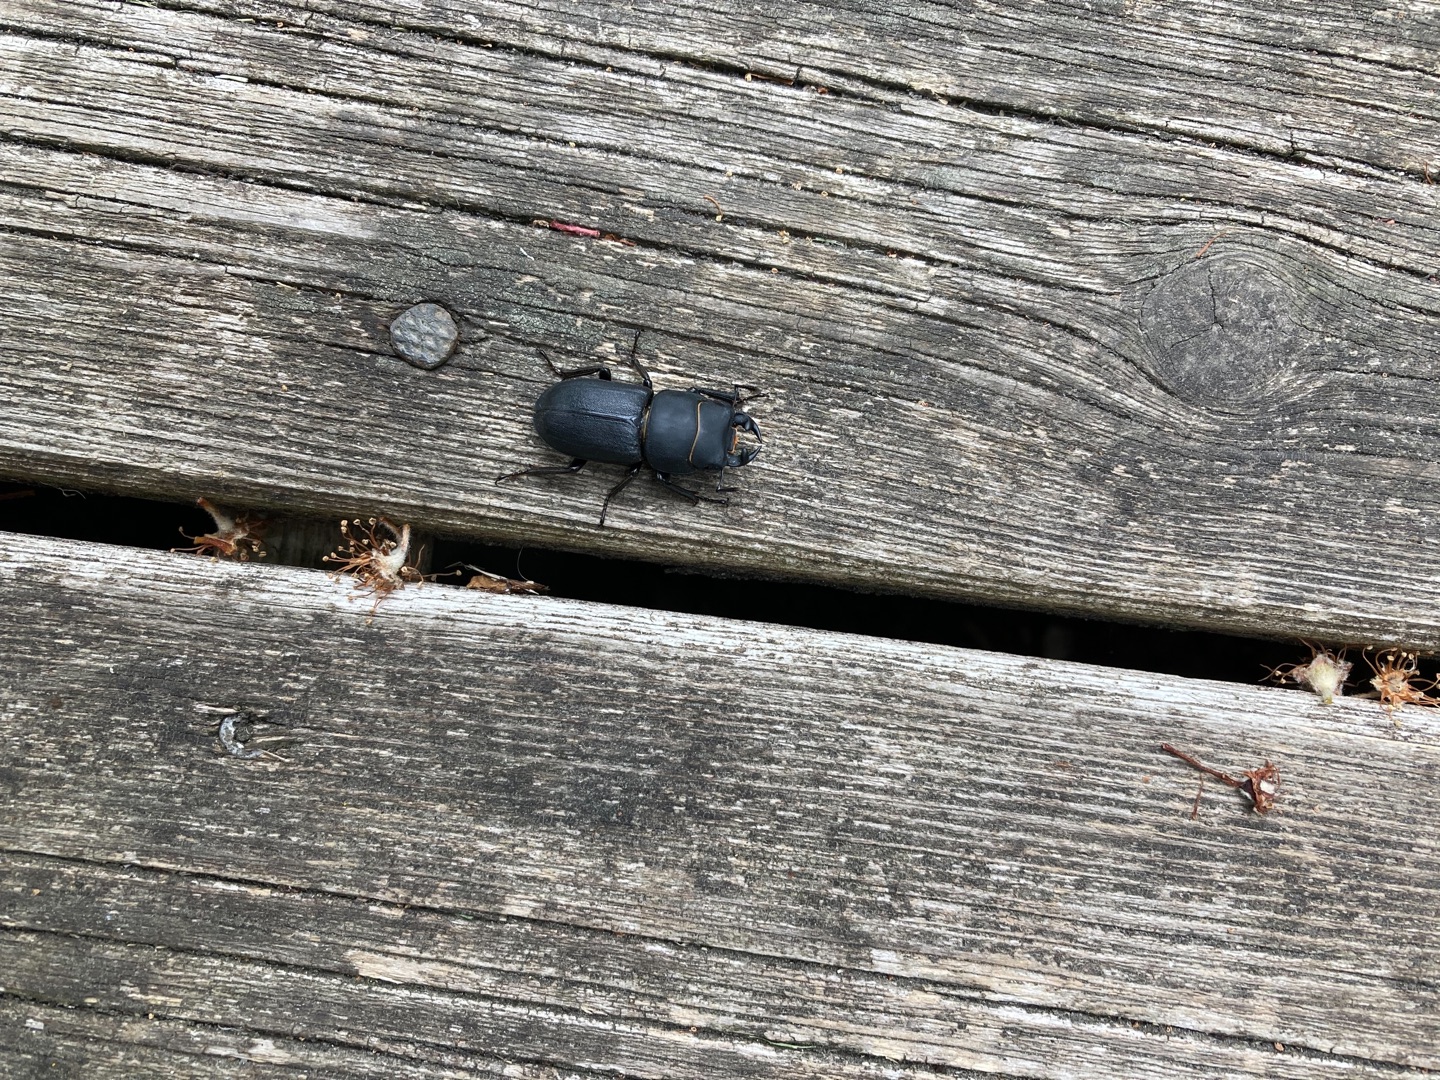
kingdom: Animalia
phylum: Arthropoda
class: Insecta
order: Coleoptera
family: Lucanidae
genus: Dorcus
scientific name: Dorcus parallelipipedus
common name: Bøghjort
